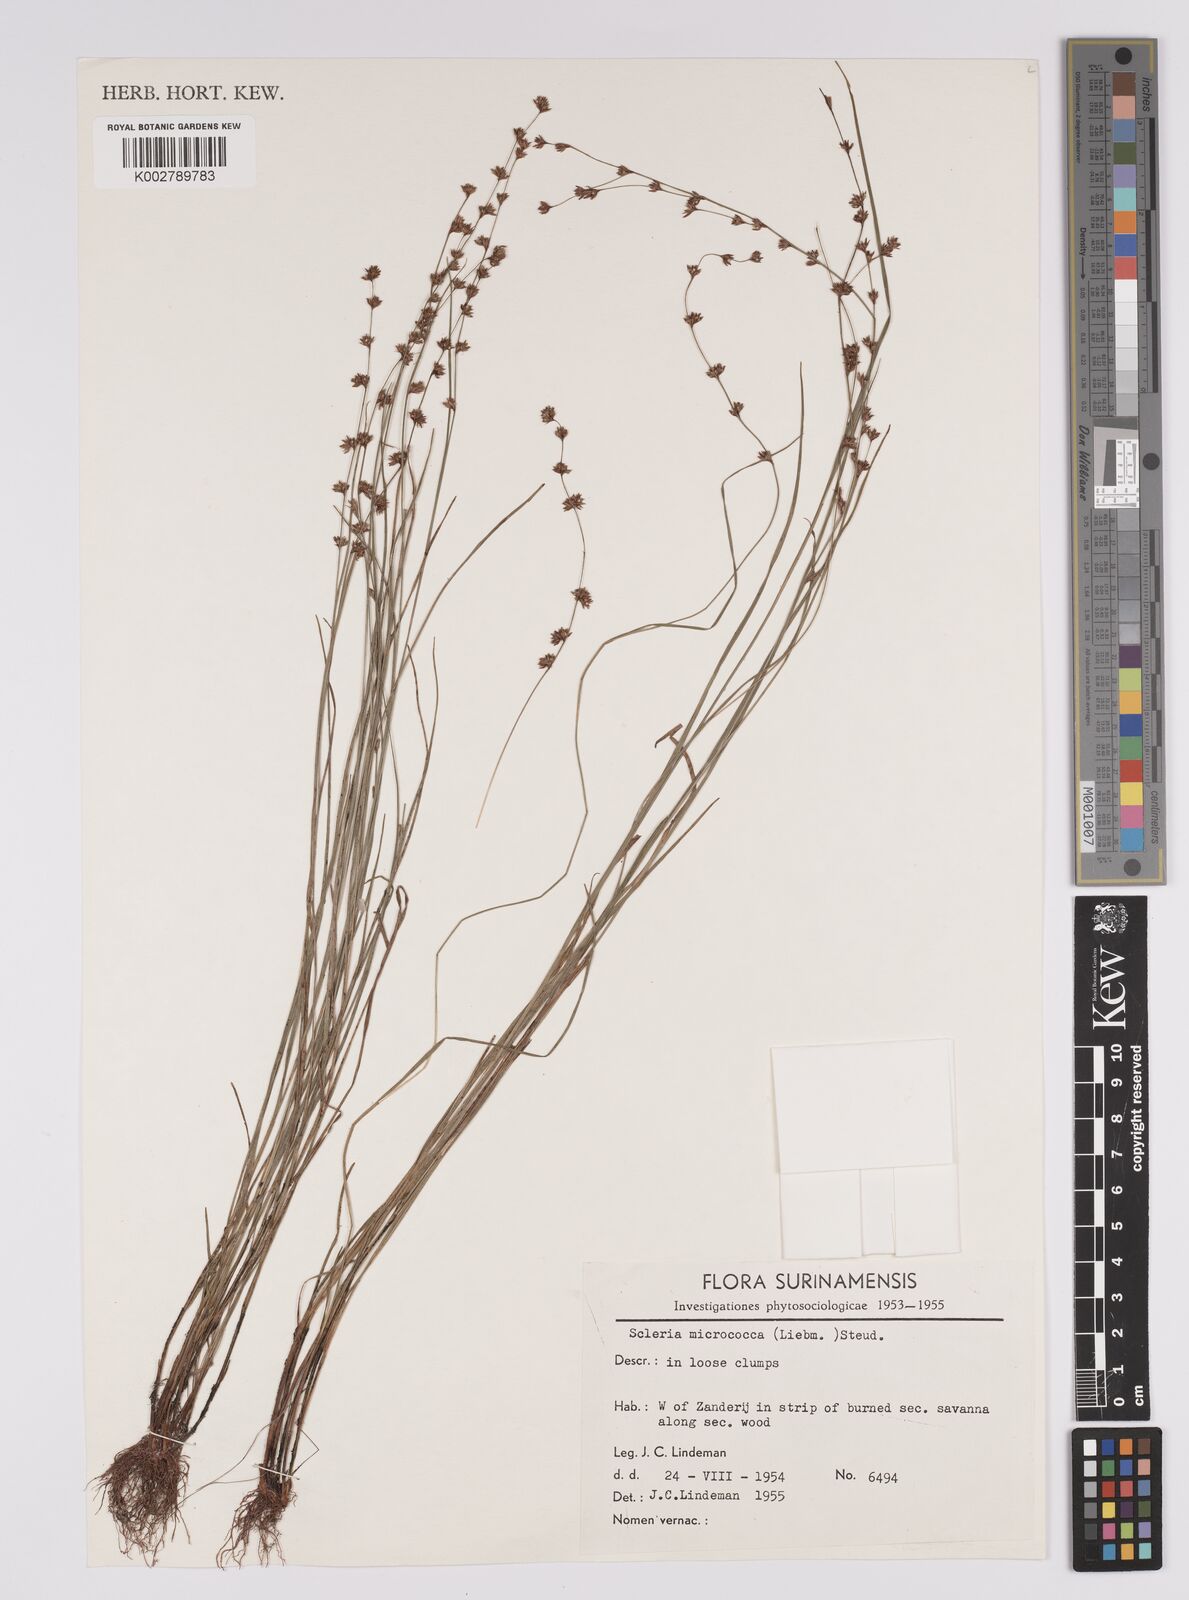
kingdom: Plantae
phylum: Tracheophyta
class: Liliopsida
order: Poales
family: Cyperaceae
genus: Scleria
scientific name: Scleria tenella
